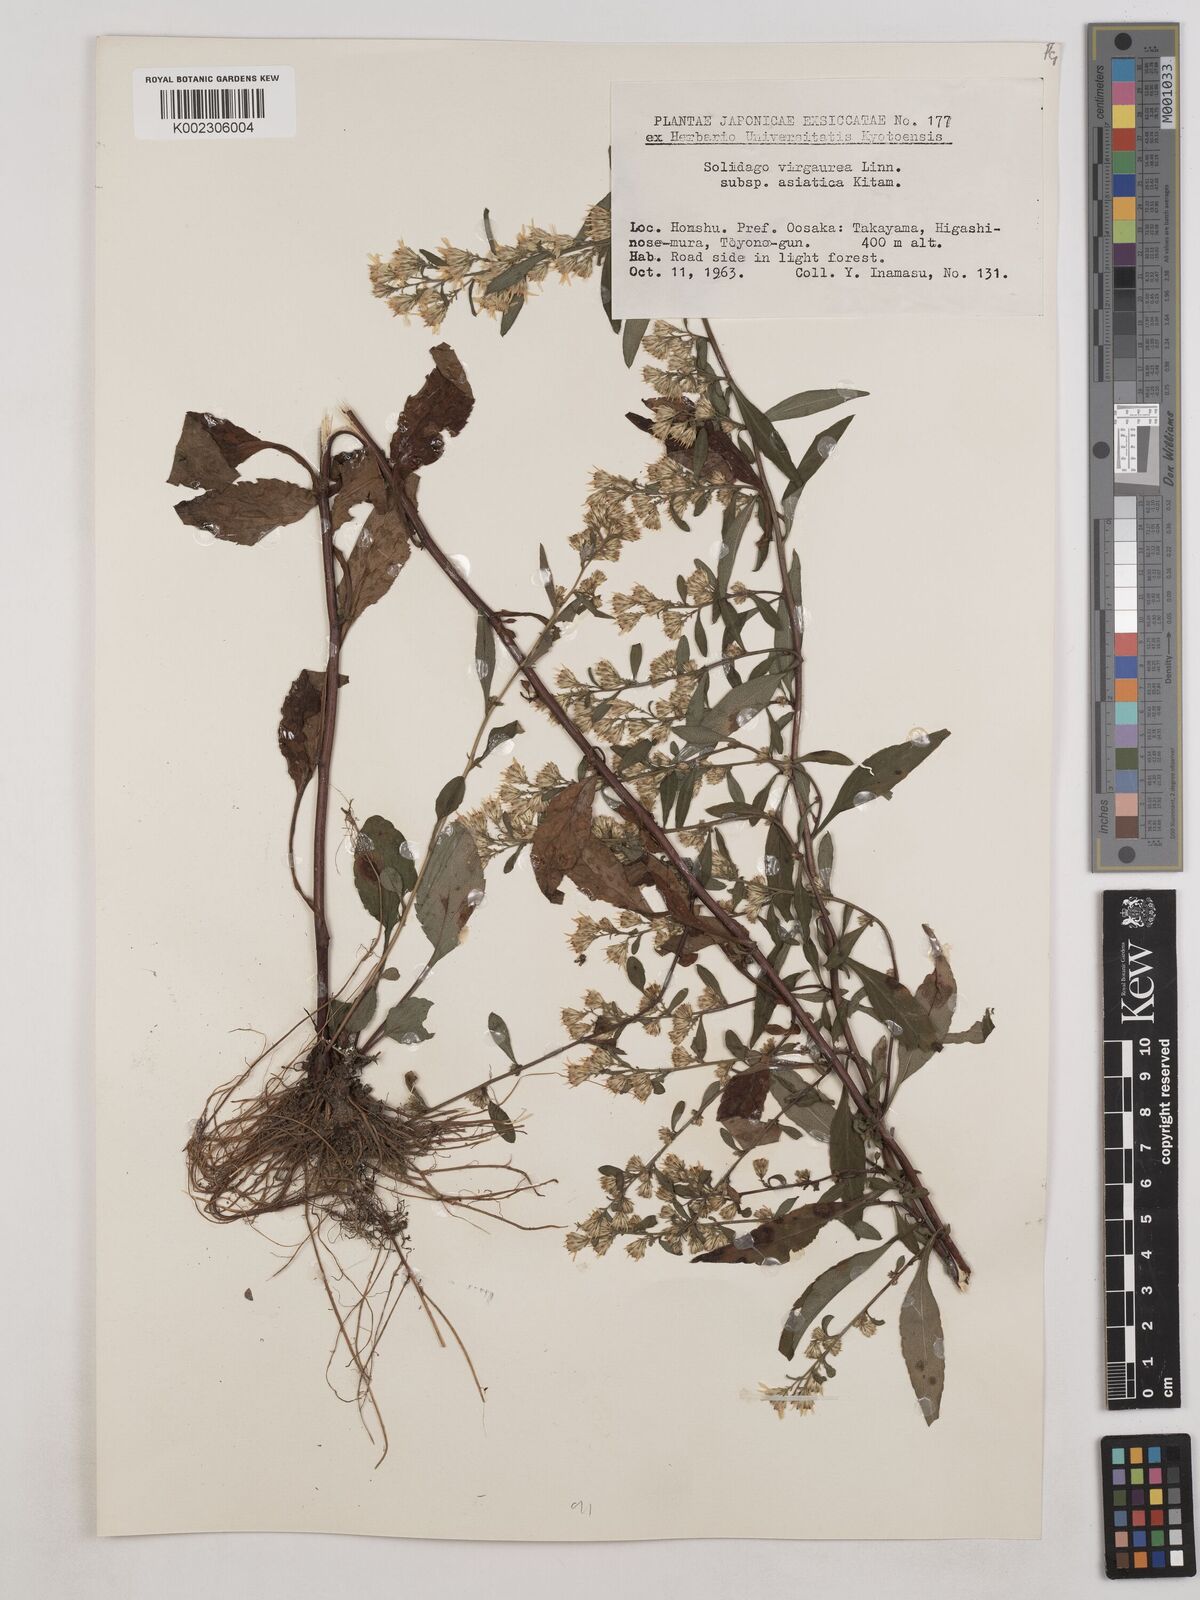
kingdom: Plantae
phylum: Tracheophyta
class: Magnoliopsida
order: Asterales
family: Asteraceae
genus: Solidago
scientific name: Solidago virgaurea
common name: Goldenrod
